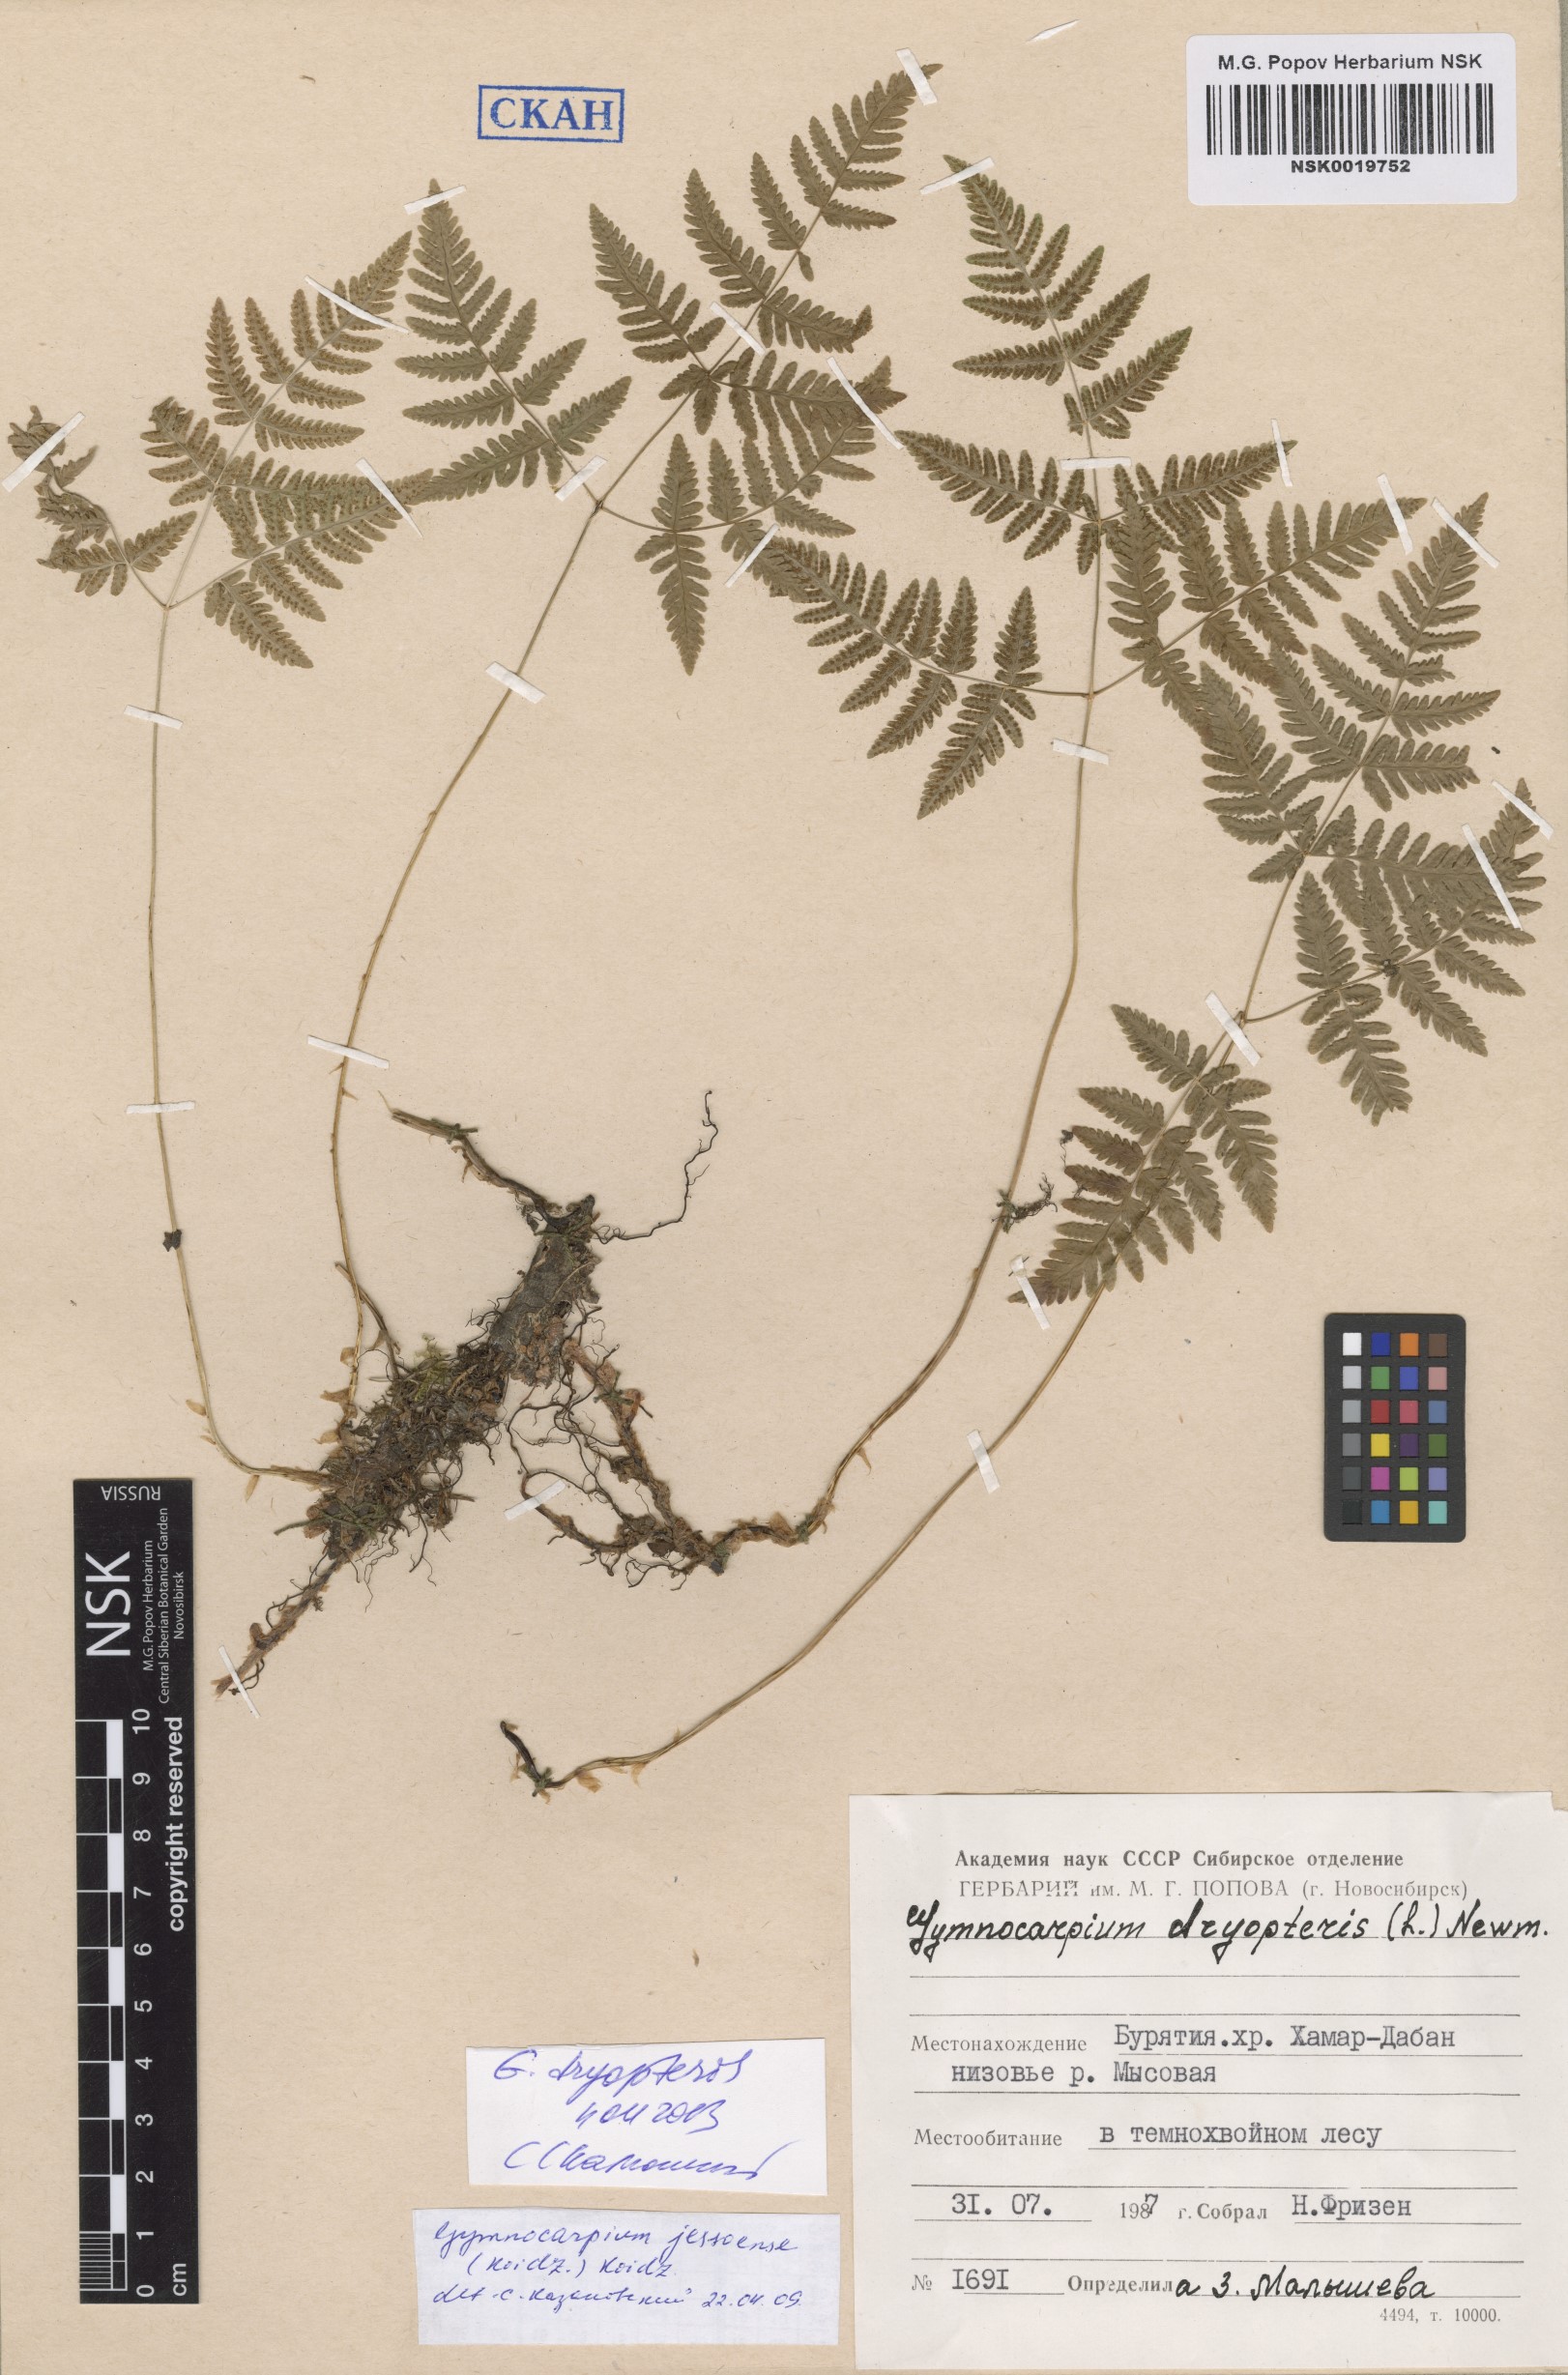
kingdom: Plantae
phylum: Tracheophyta
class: Polypodiopsida
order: Polypodiales
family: Cystopteridaceae
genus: Gymnocarpium
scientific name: Gymnocarpium dryopteris
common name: Oak fern
